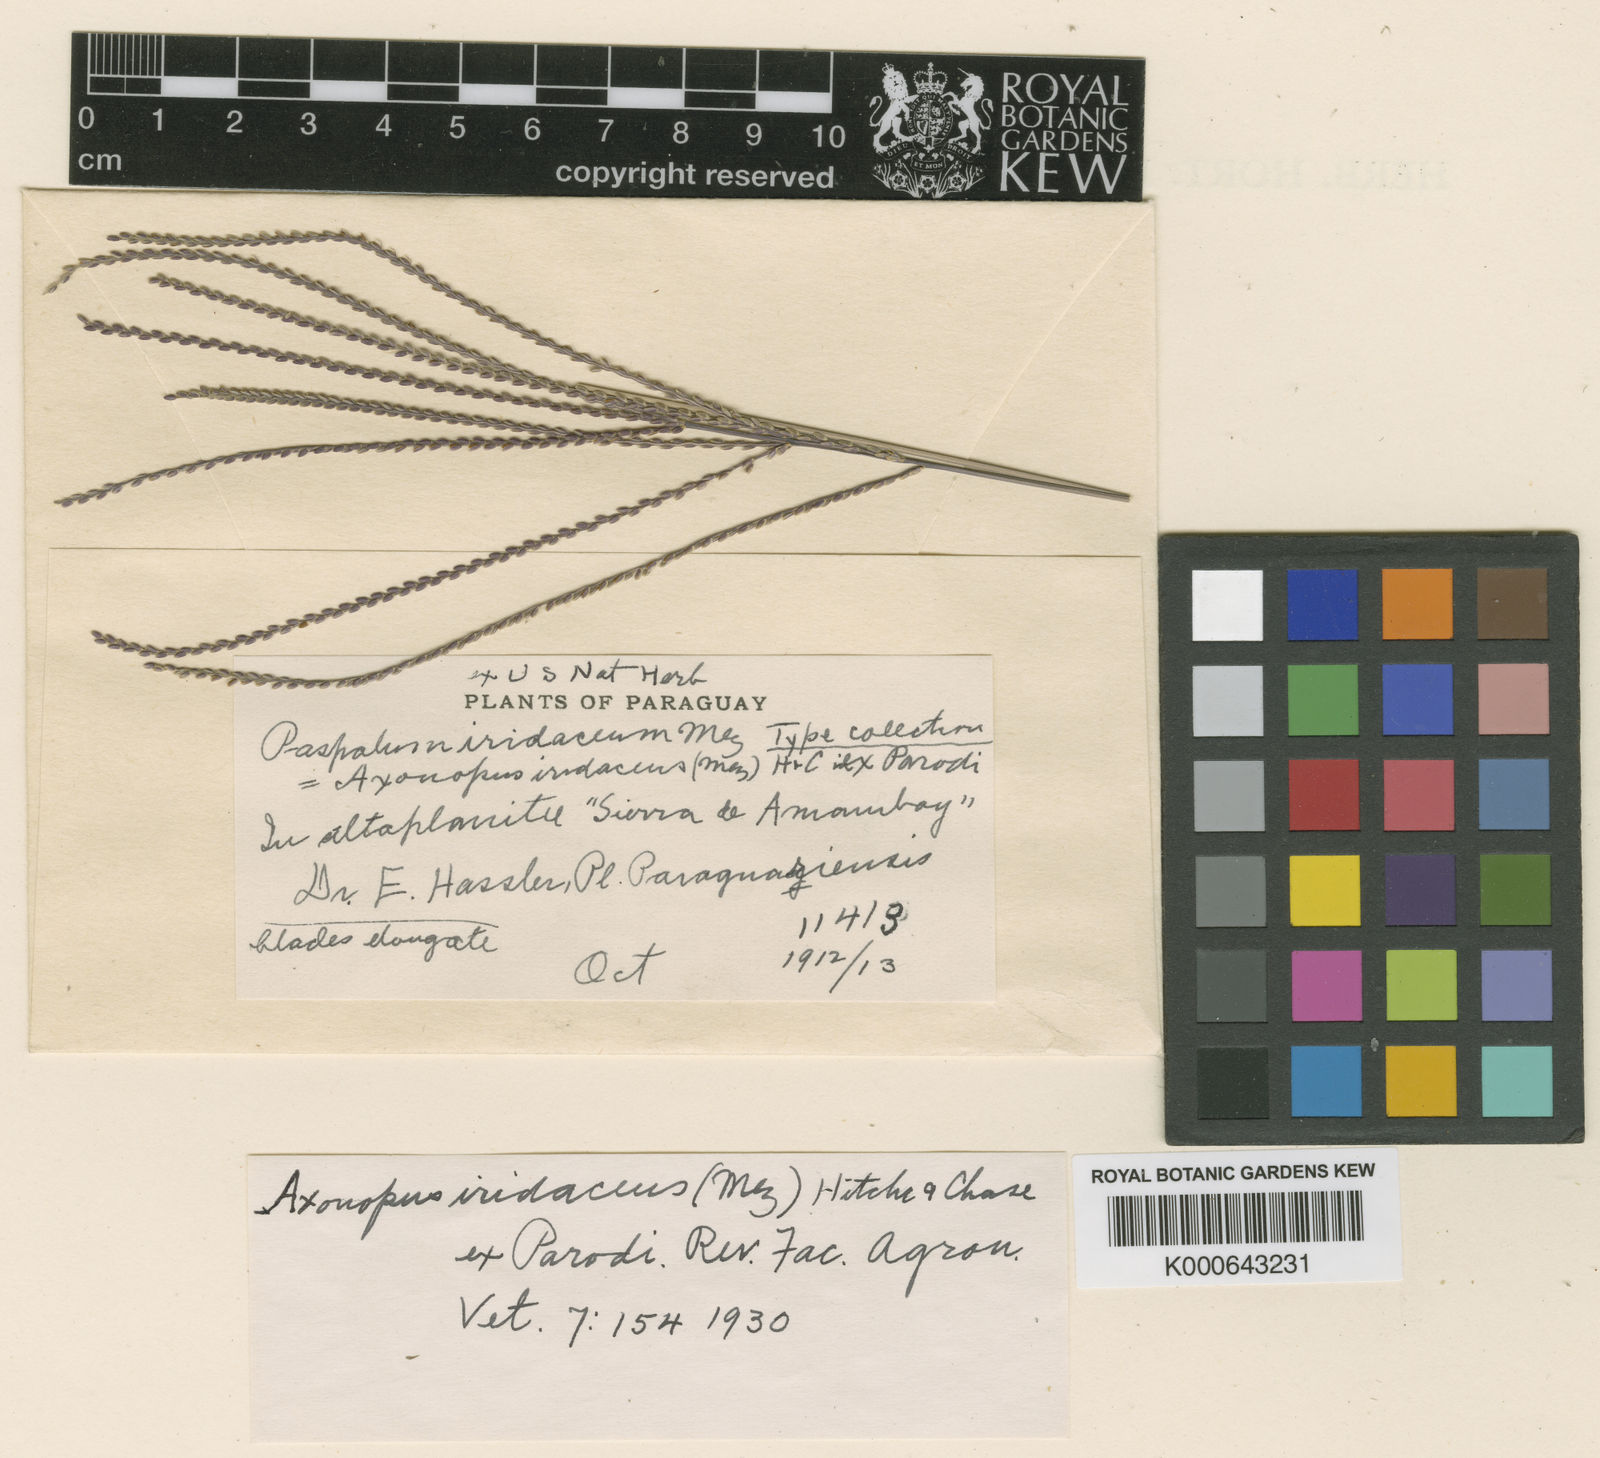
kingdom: Plantae
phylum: Tracheophyta
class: Liliopsida
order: Poales
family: Poaceae
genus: Axonopus
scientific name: Axonopus suffultus
